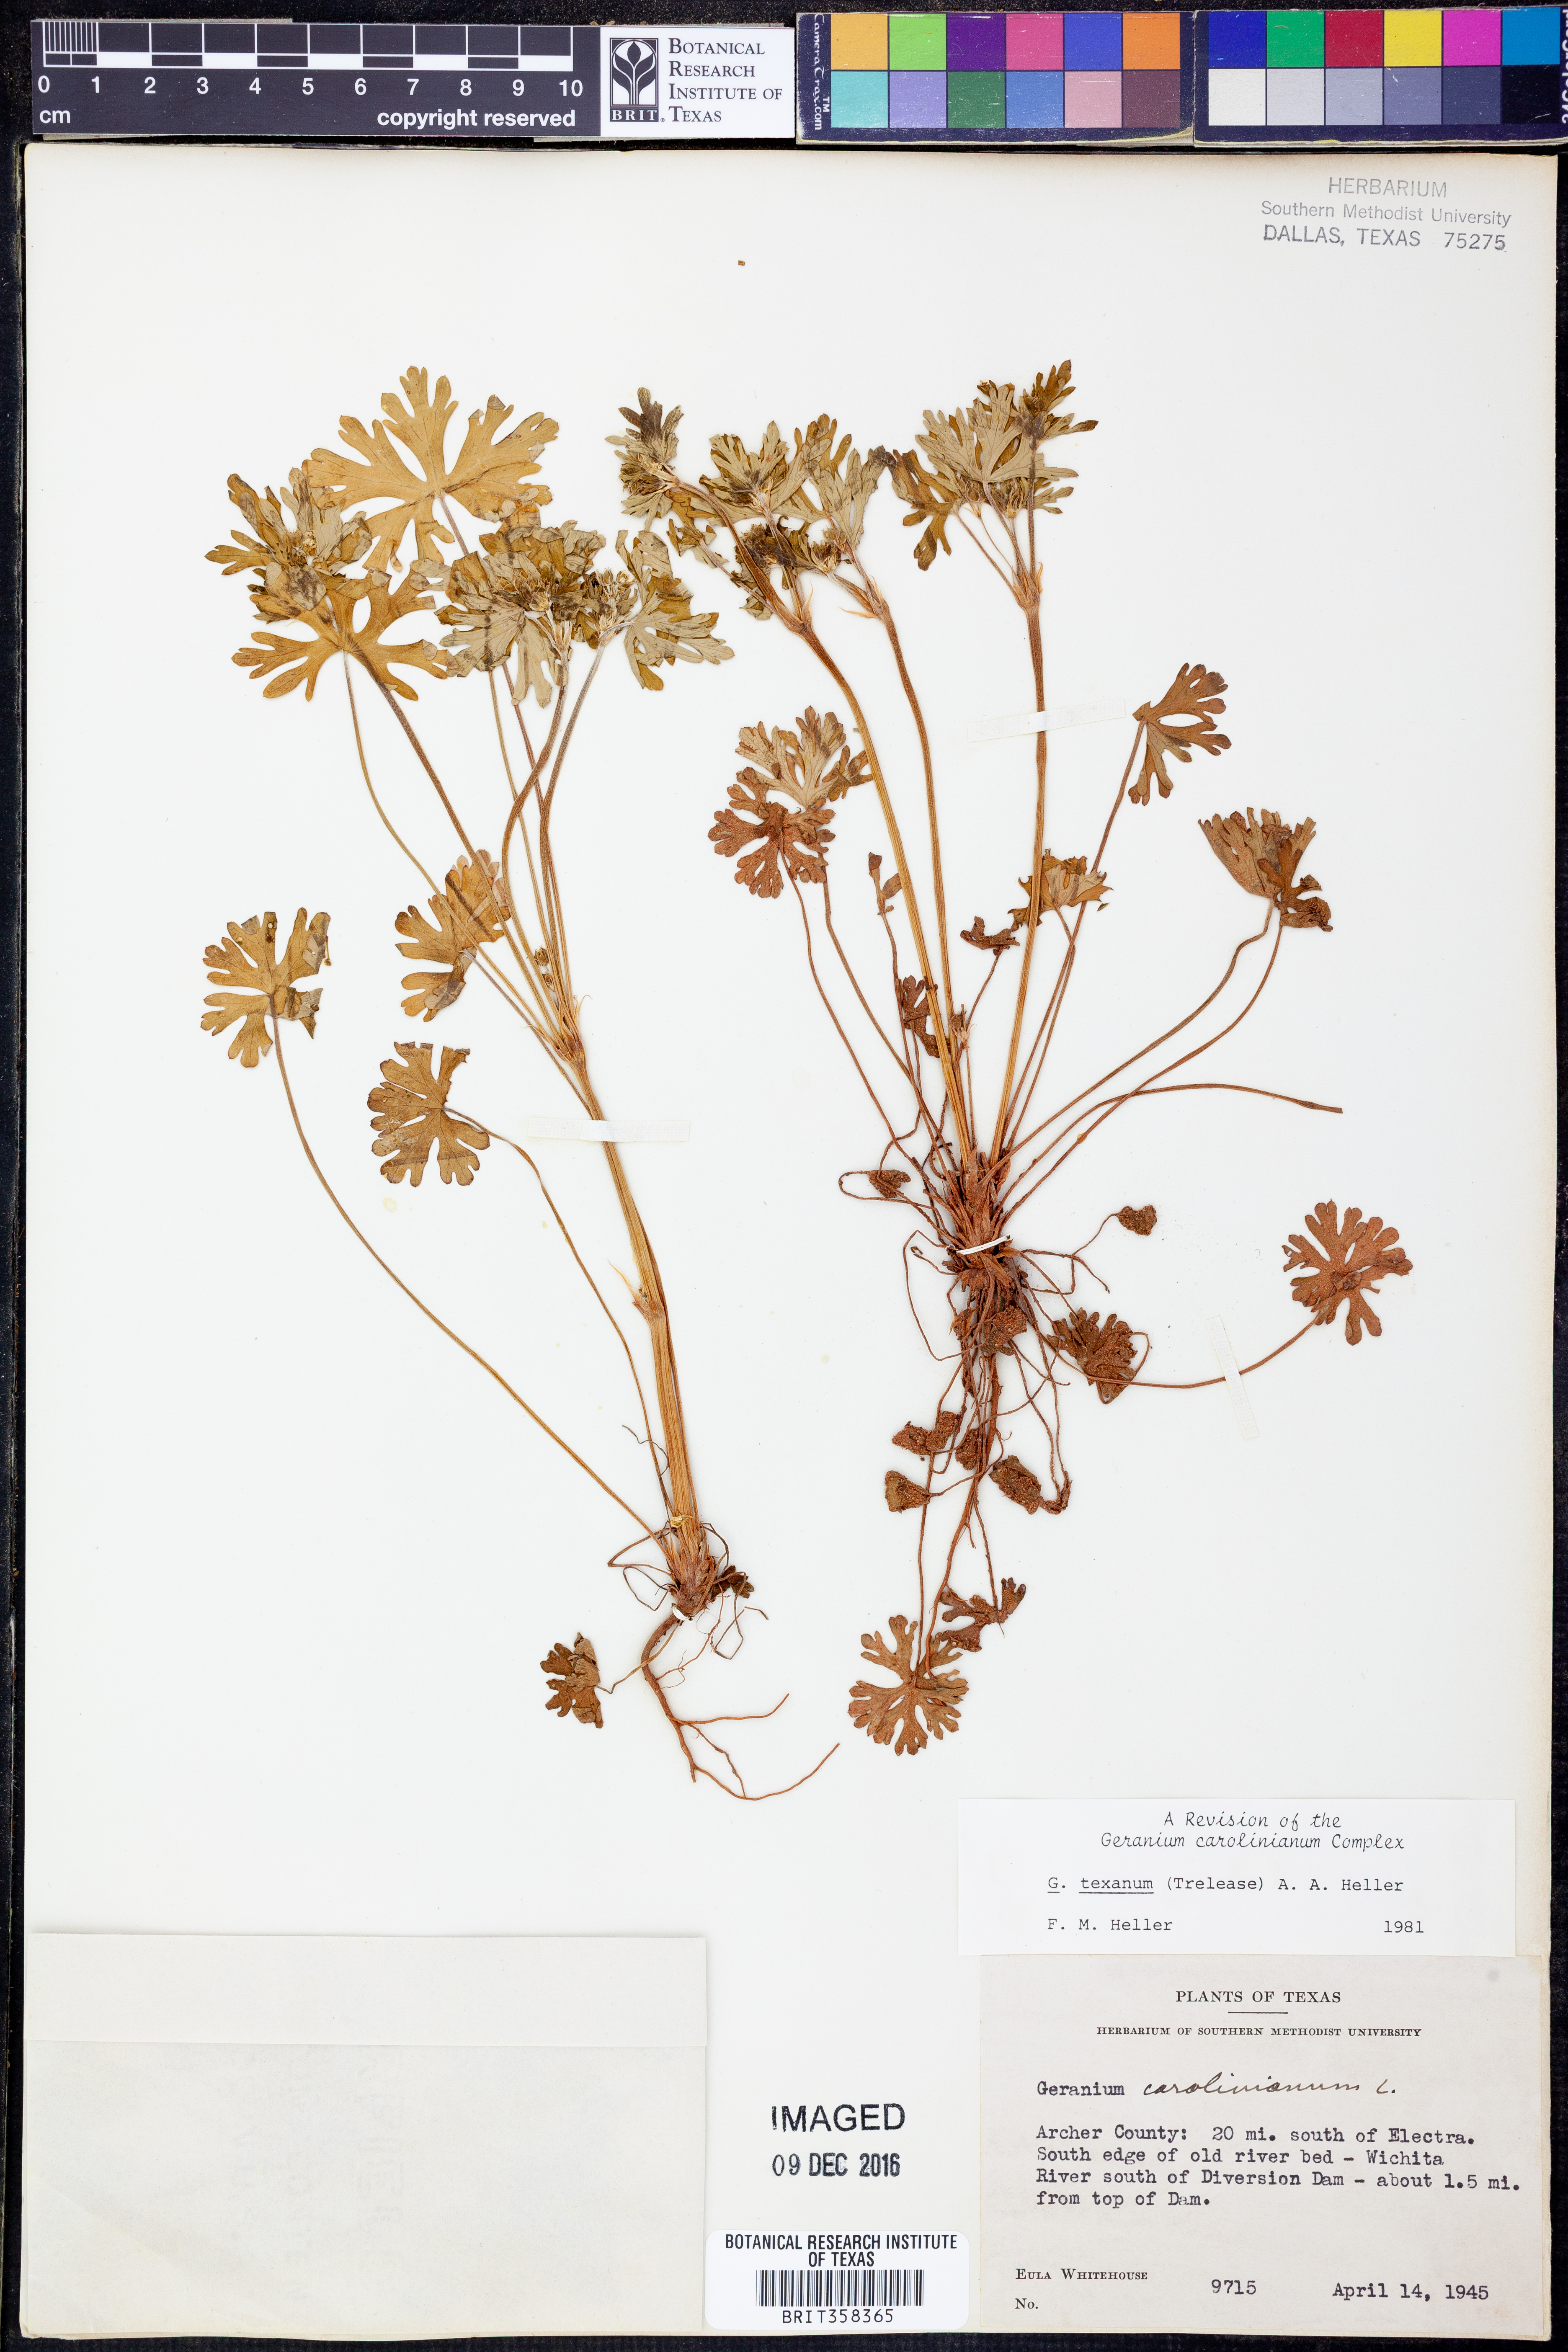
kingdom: Plantae
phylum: Tracheophyta
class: Magnoliopsida
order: Geraniales
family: Geraniaceae
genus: Geranium
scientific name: Geranium texanum
